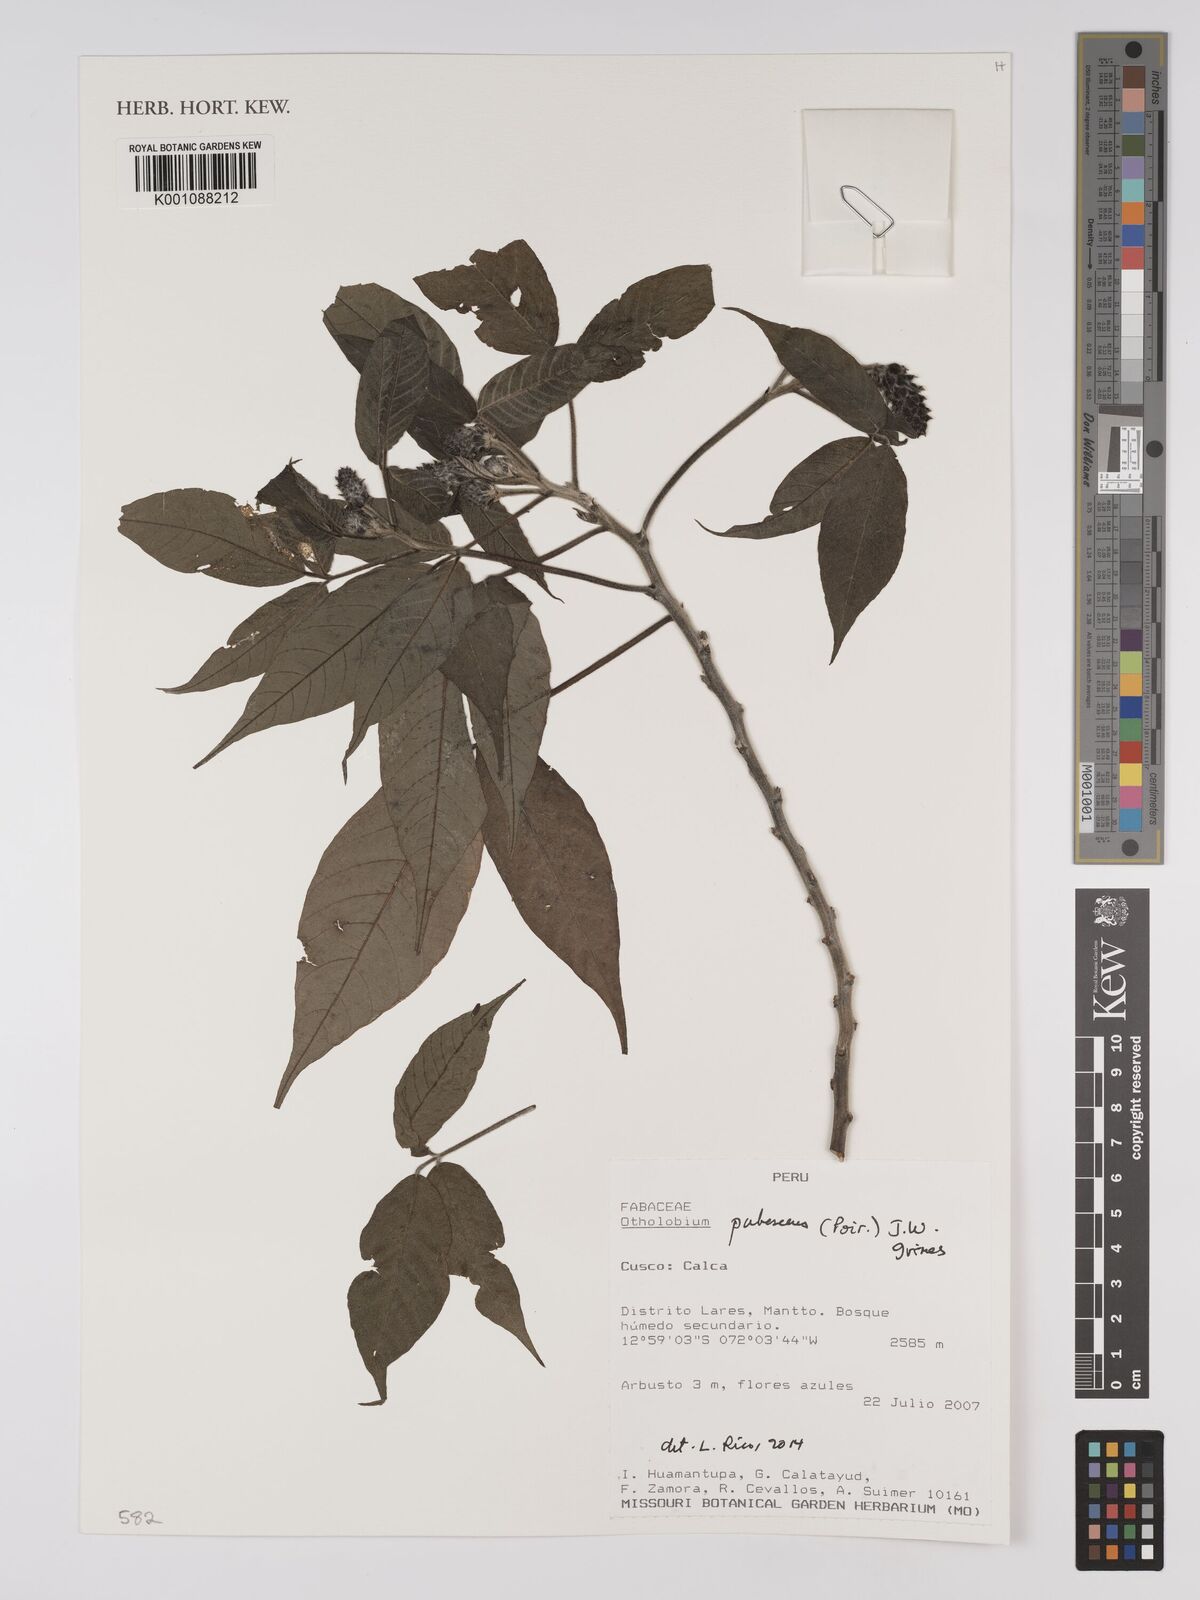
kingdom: Plantae
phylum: Tracheophyta
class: Magnoliopsida
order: Fabales
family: Fabaceae
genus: Psoralea
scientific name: Psoralea Otholobium pubescens
